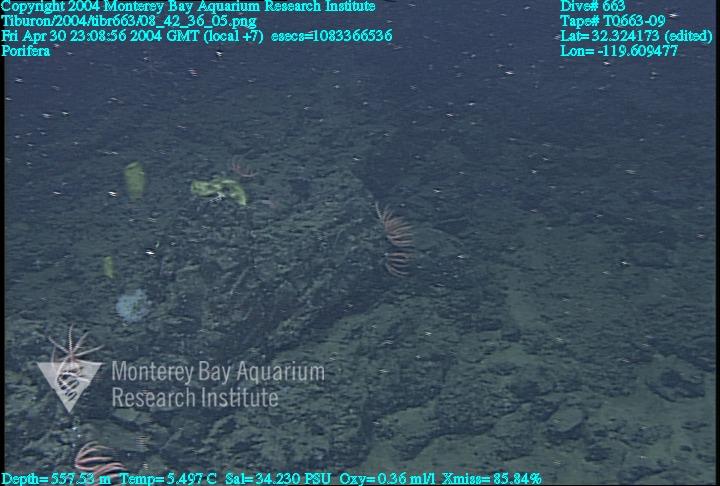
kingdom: Animalia
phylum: Porifera
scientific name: Porifera
